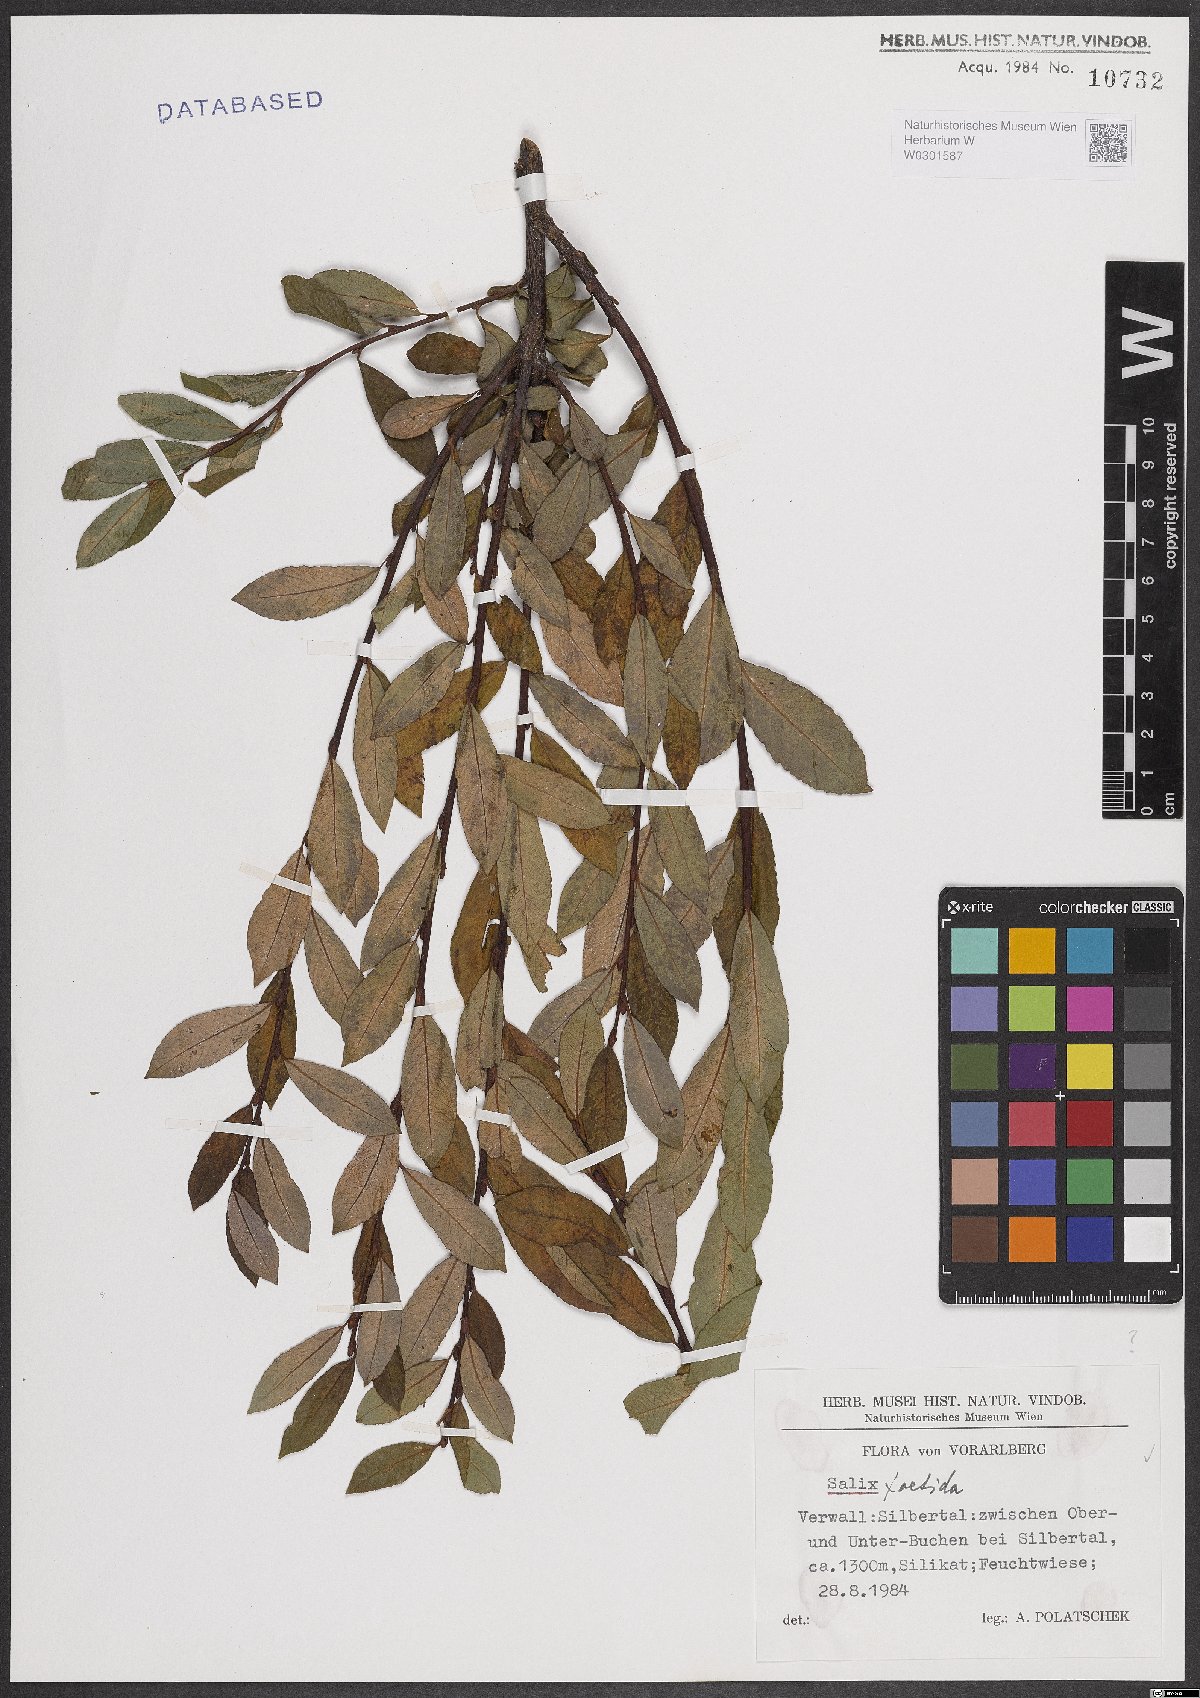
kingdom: Plantae
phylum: Tracheophyta
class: Magnoliopsida
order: Malpighiales
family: Salicaceae
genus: Salix
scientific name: Salix foetida
